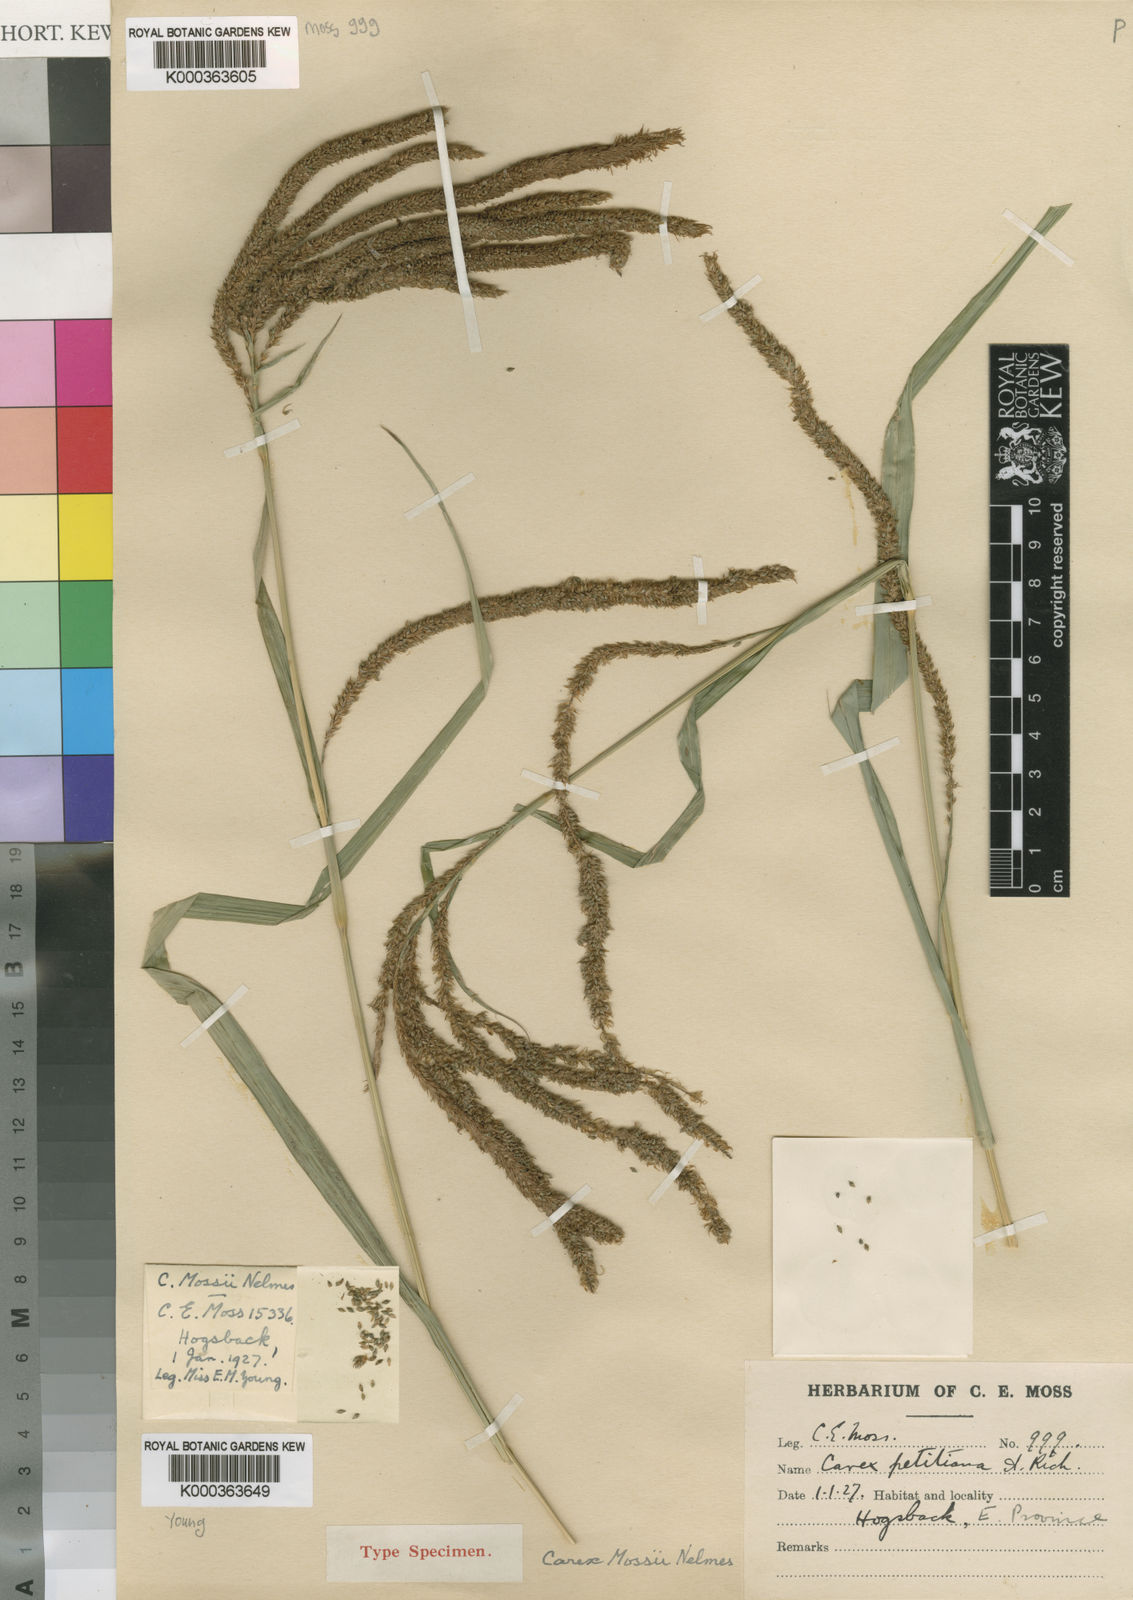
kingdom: Plantae
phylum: Tracheophyta
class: Liliopsida
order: Poales
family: Cyperaceae
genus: Carex
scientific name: Carex petitiana
